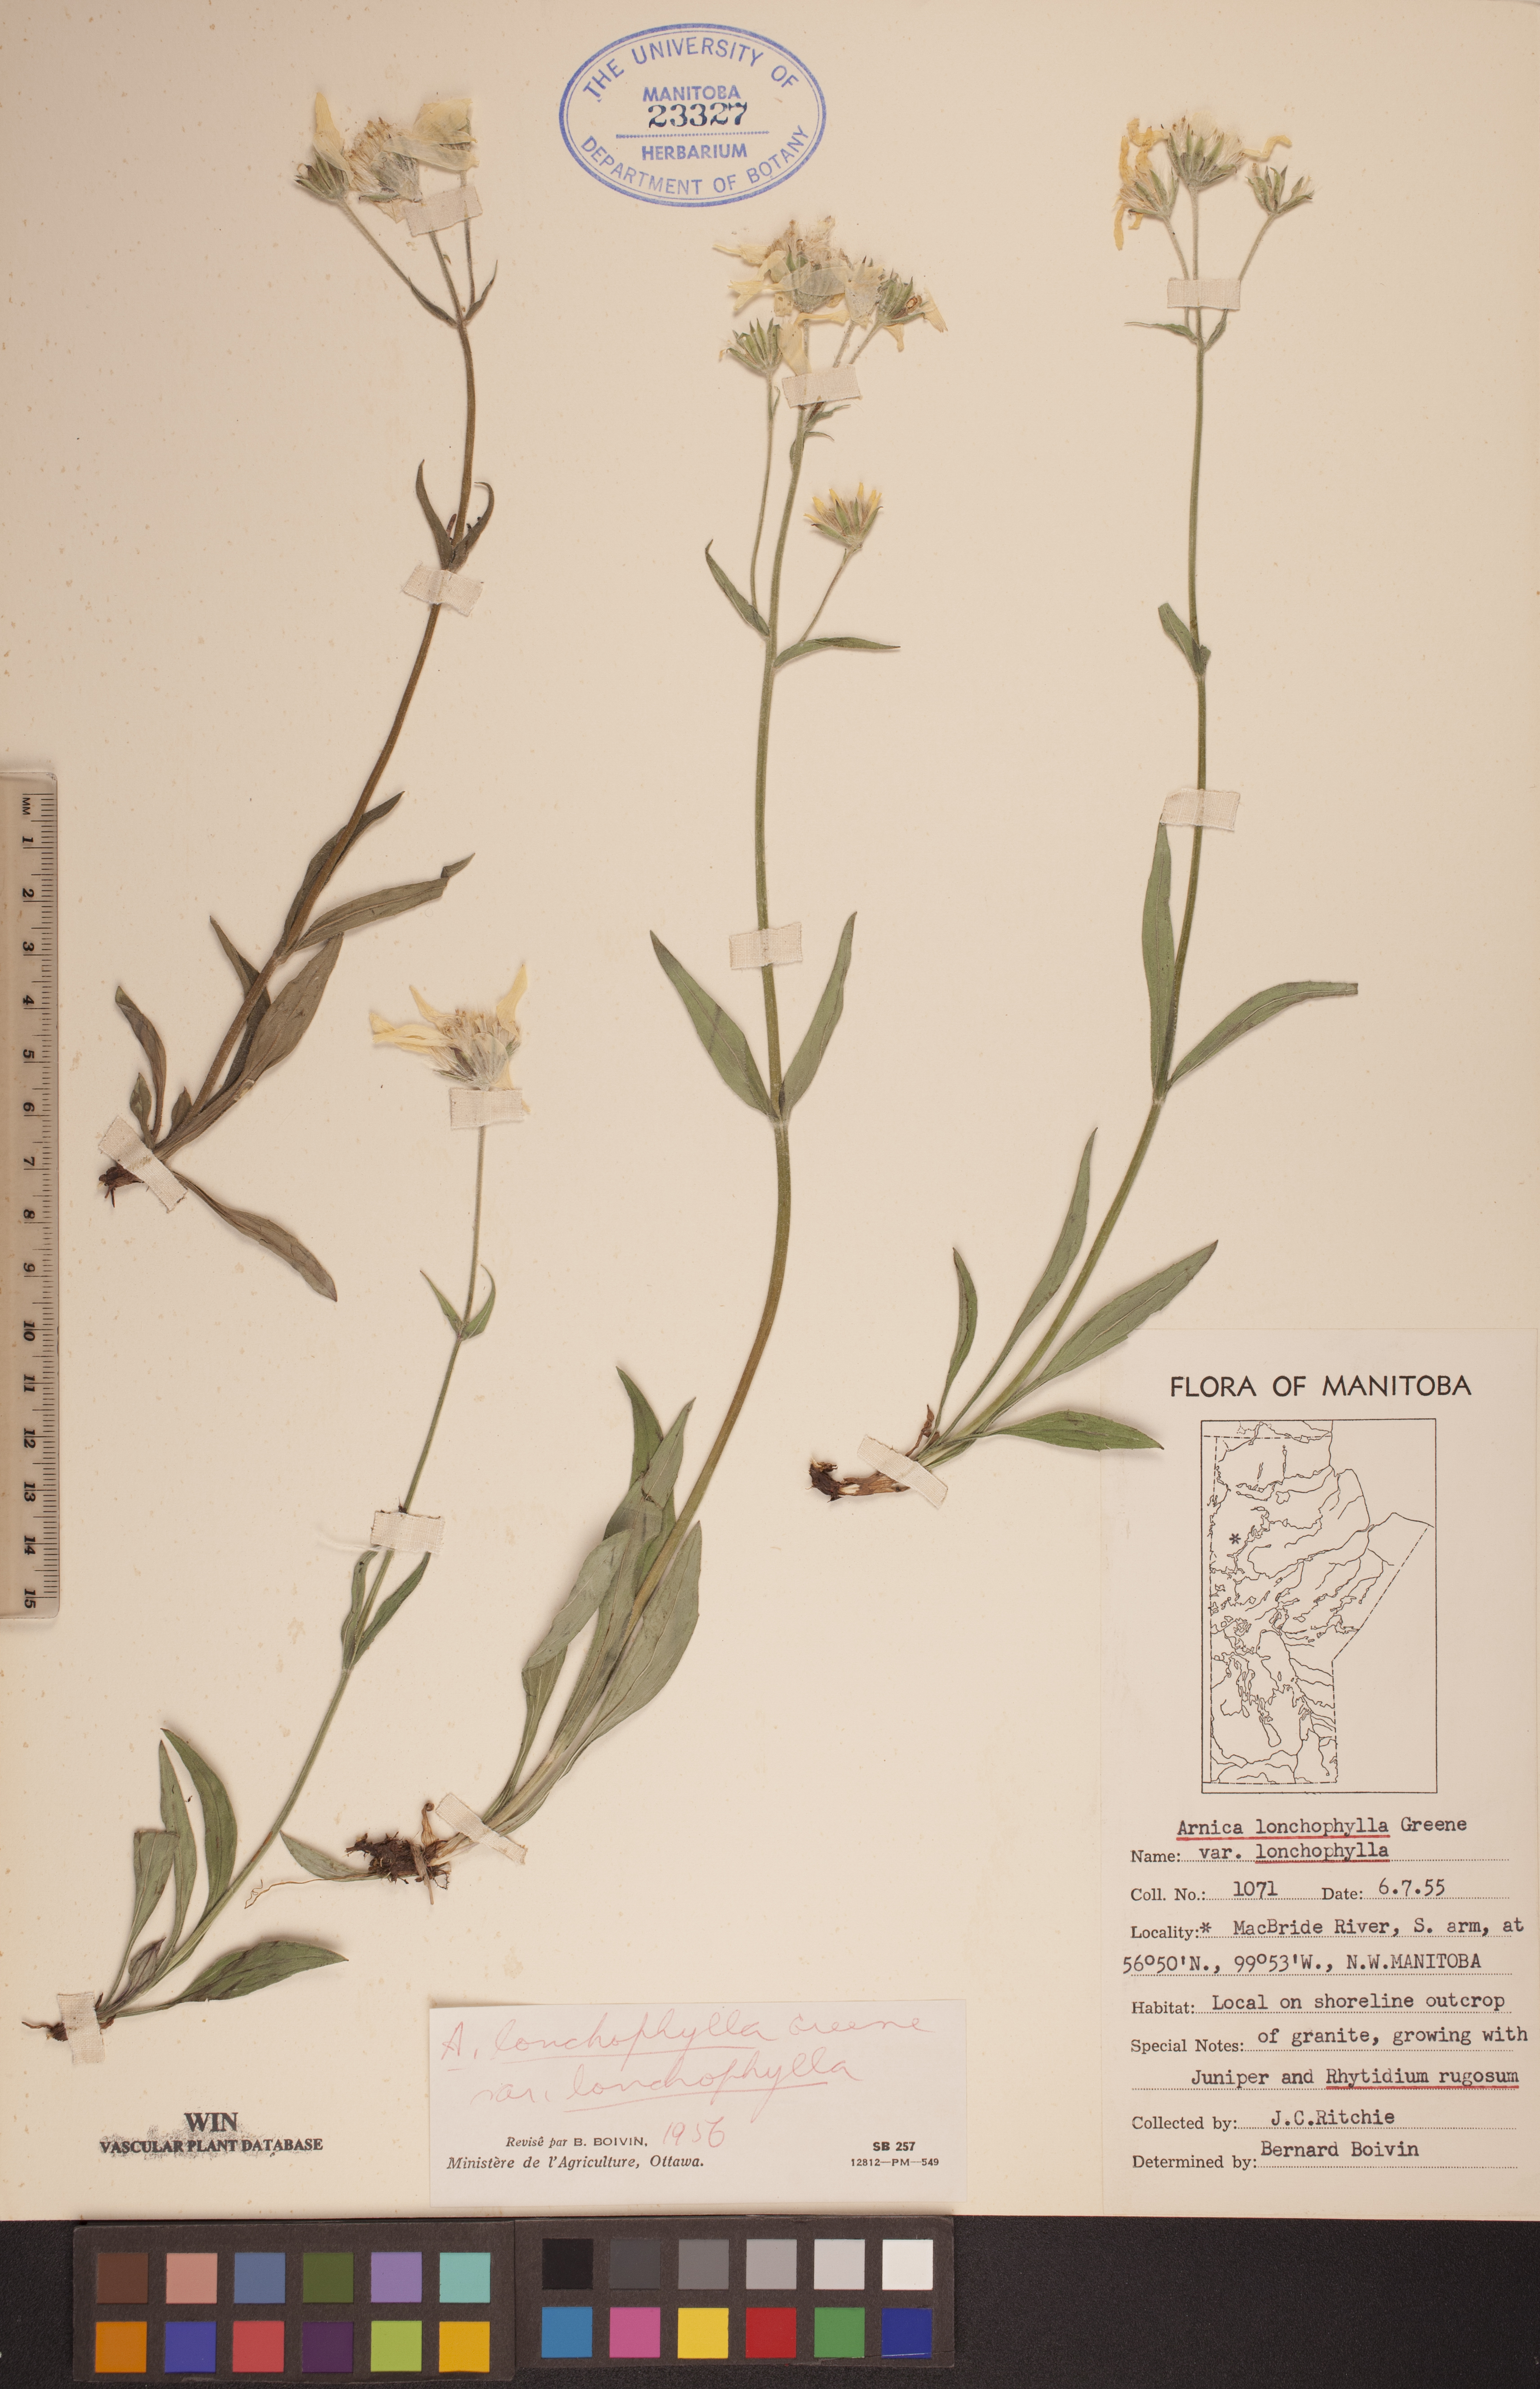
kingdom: Plantae
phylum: Tracheophyta
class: Magnoliopsida
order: Asterales
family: Asteraceae
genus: Arnica
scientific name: Arnica lonchophylla
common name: Northern arnica
